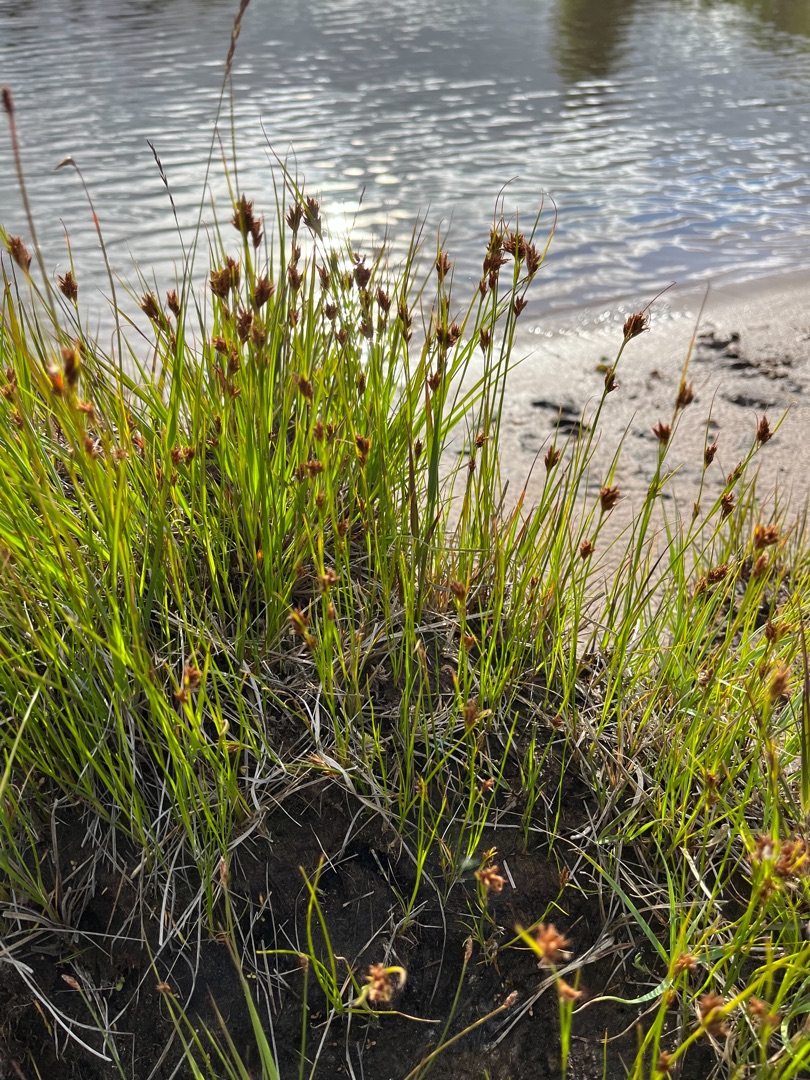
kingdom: Plantae
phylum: Tracheophyta
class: Liliopsida
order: Poales
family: Cyperaceae
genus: Rhynchospora
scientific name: Rhynchospora fusca
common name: Brun næbfrø
